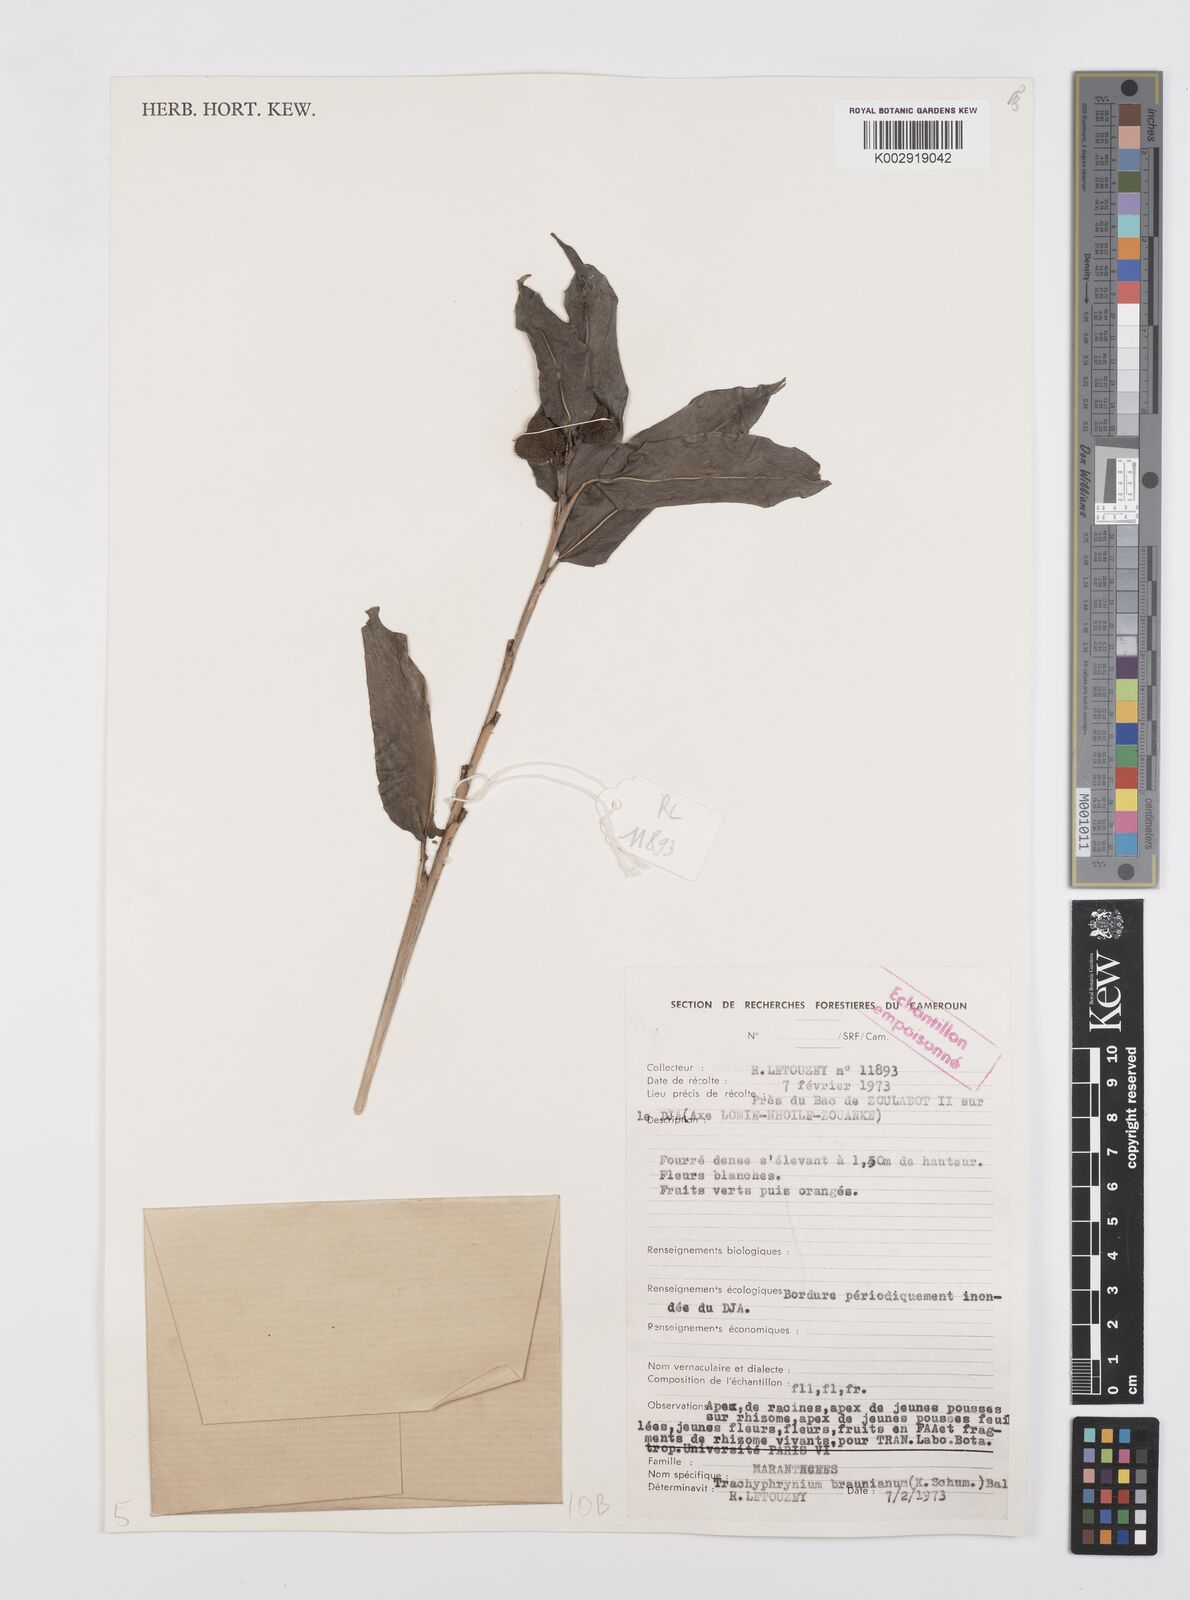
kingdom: Plantae
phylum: Tracheophyta
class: Liliopsida
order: Zingiberales
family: Marantaceae
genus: Trachyphrynium
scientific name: Trachyphrynium braunianum
